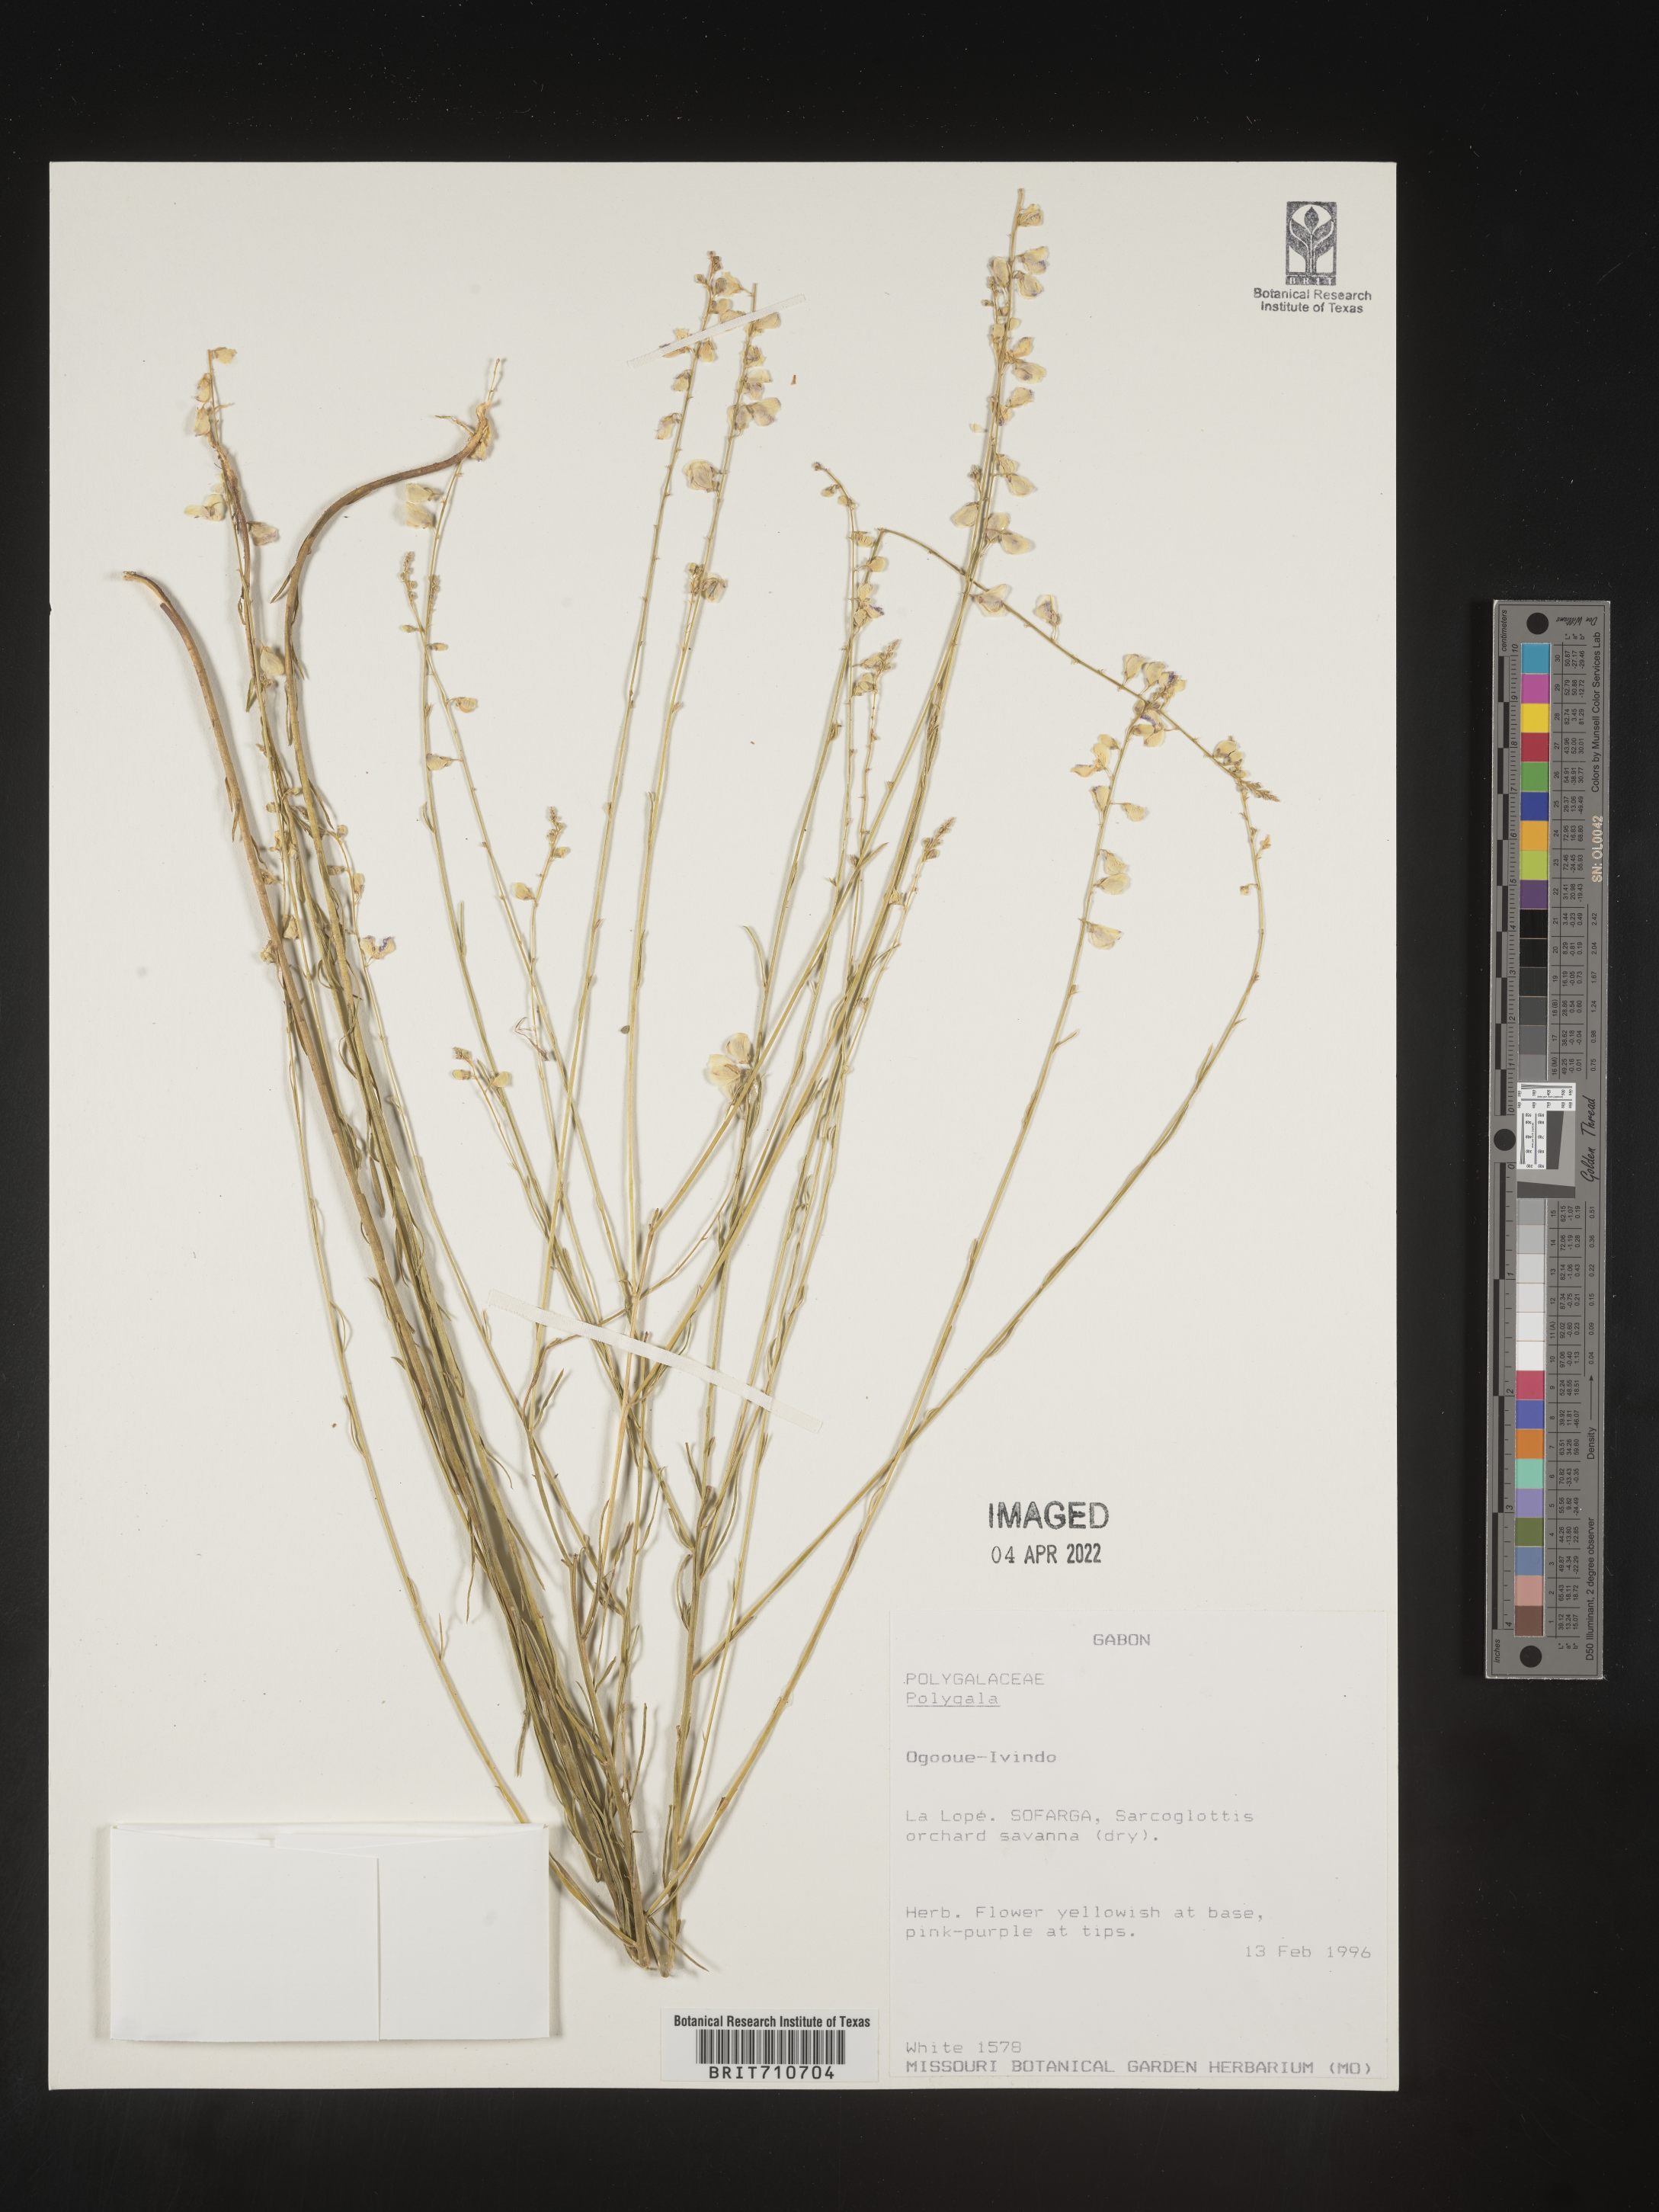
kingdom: Plantae
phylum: Tracheophyta
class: Magnoliopsida
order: Fabales
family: Polygalaceae
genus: Polygala
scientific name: Polygala
